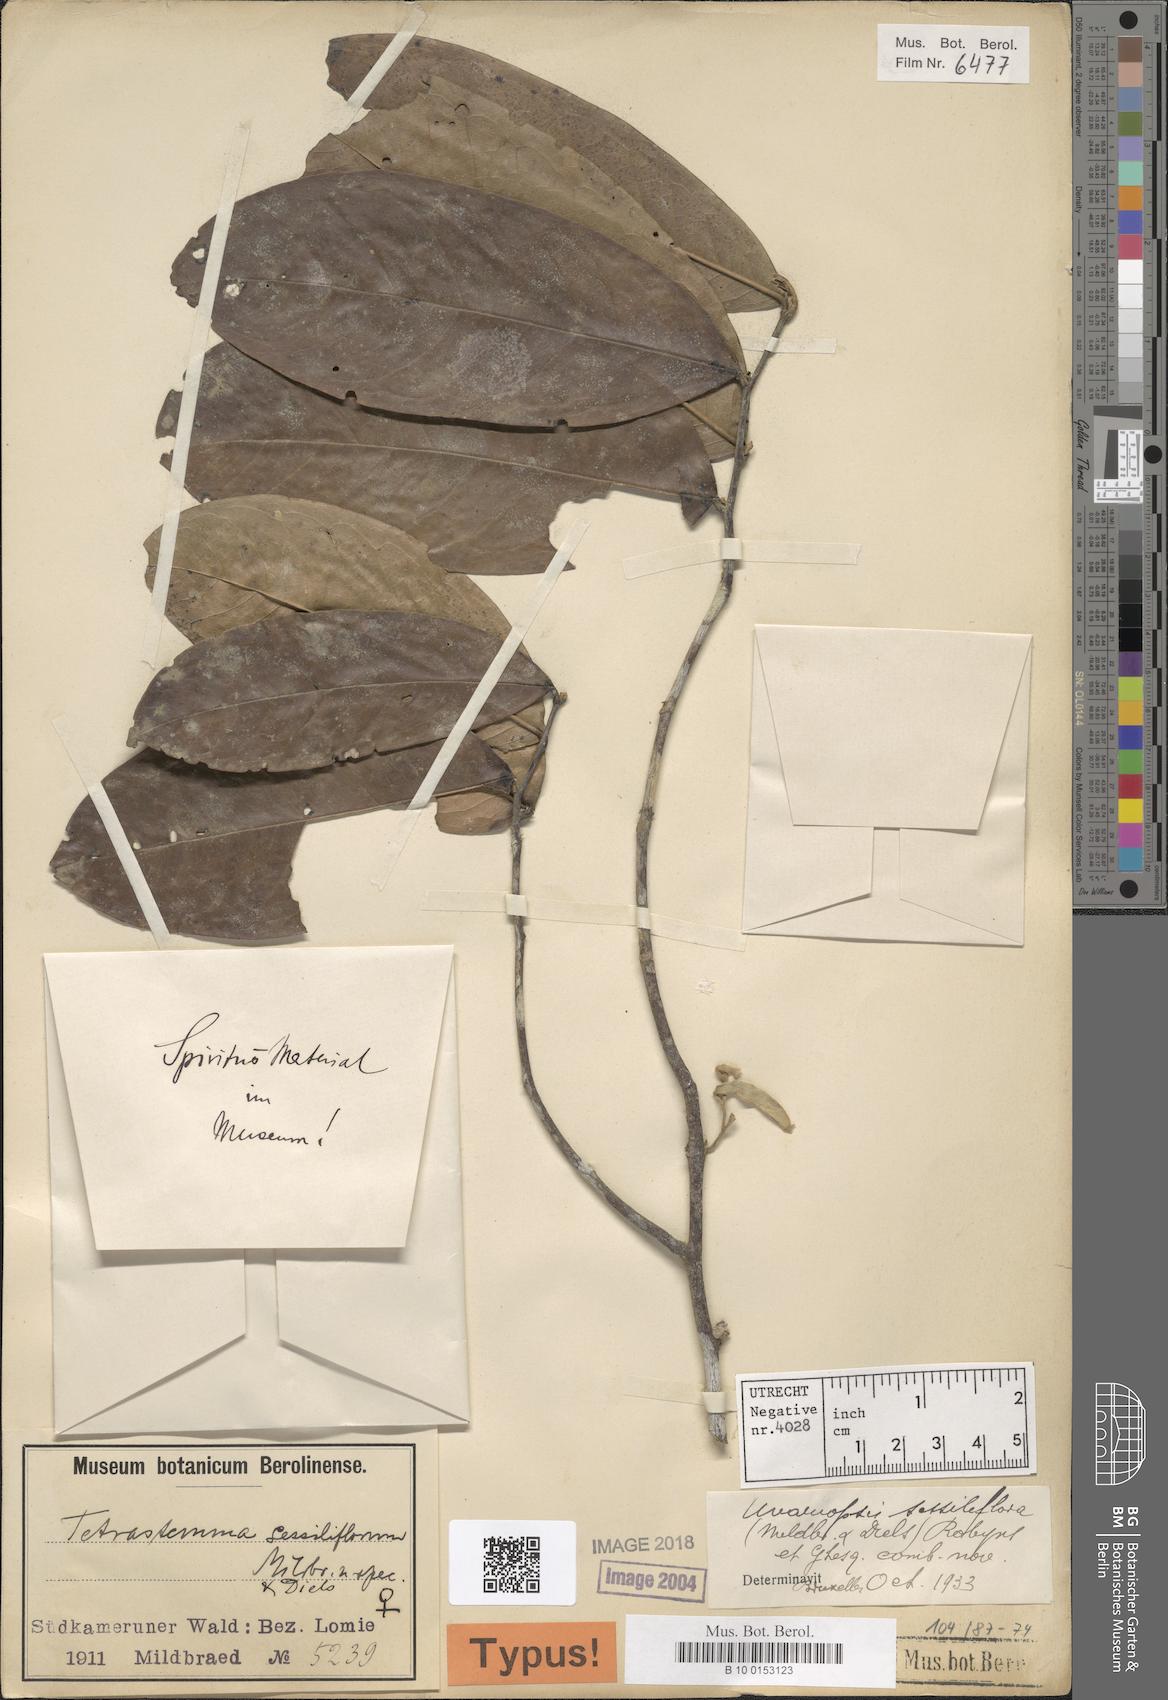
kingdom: Plantae
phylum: Tracheophyta
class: Magnoliopsida
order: Magnoliales
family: Annonaceae
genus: Uvariopsis
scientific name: Uvariopsis dioica
